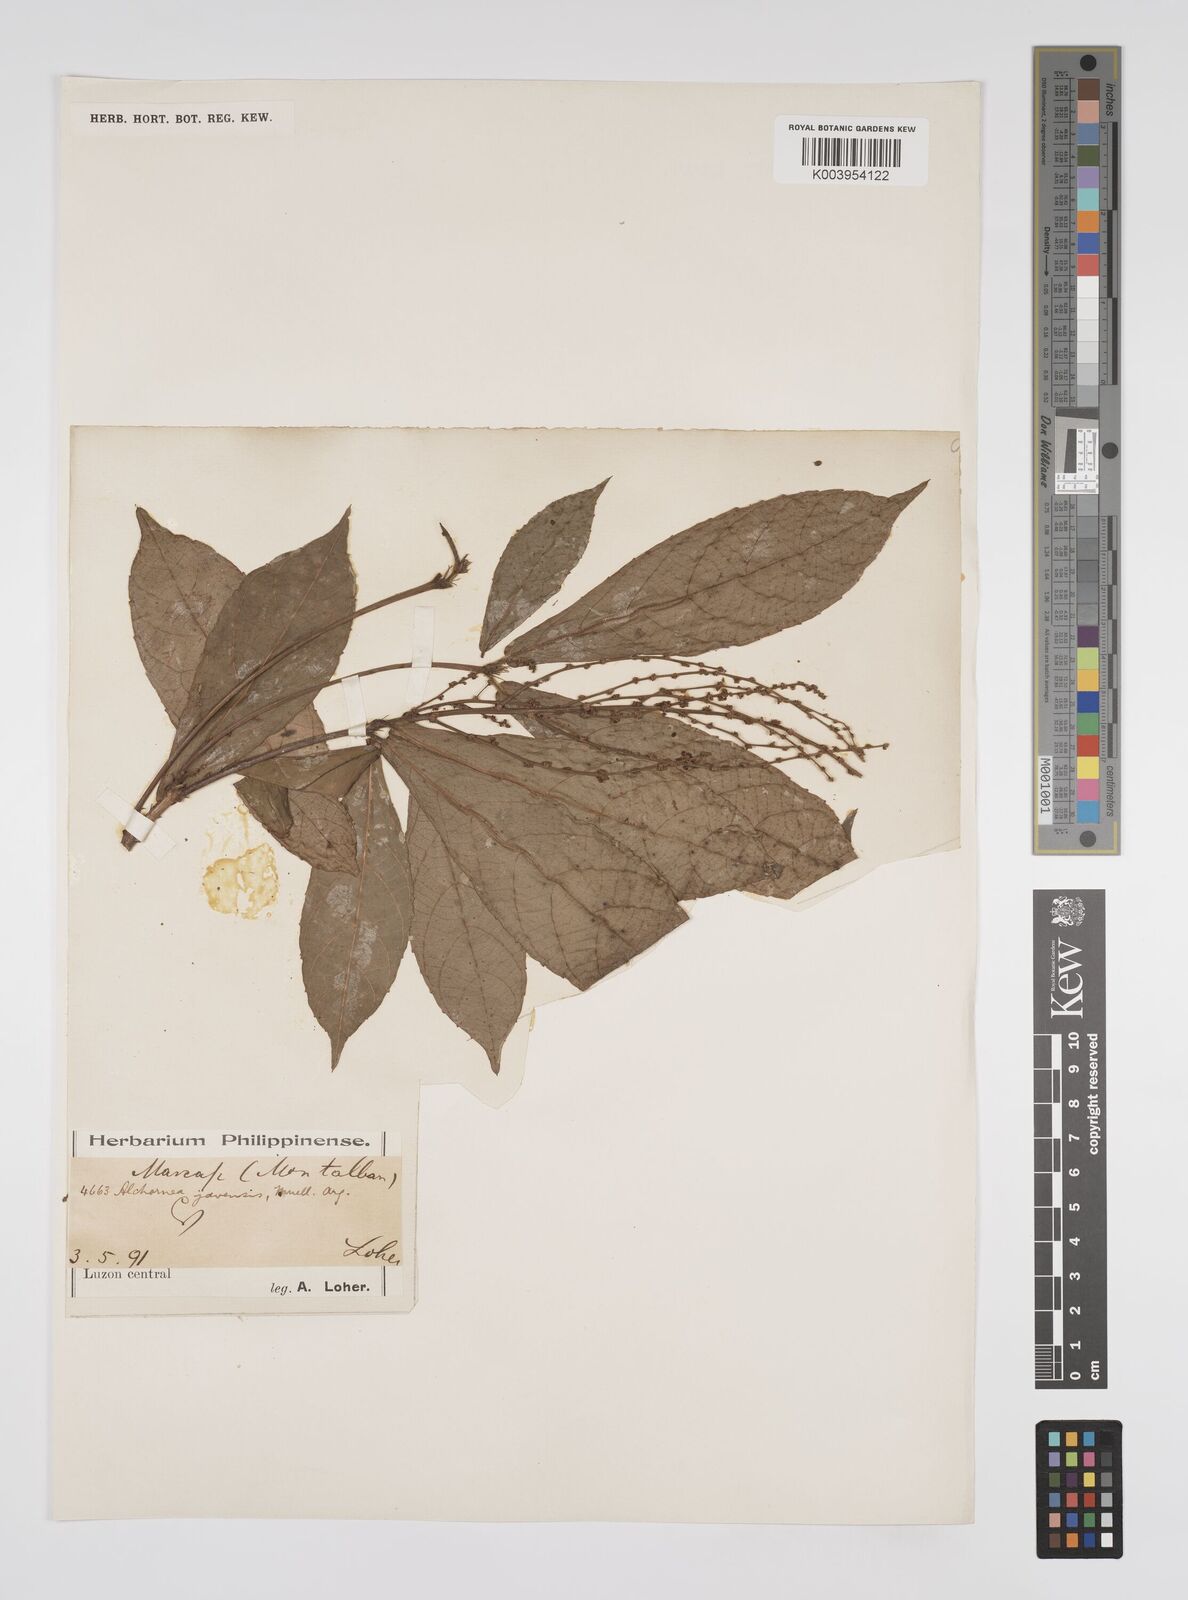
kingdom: Plantae
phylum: Tracheophyta
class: Magnoliopsida
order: Malpighiales
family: Euphorbiaceae
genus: Alchornea
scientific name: Alchornea rugosa
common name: Alchorntree
